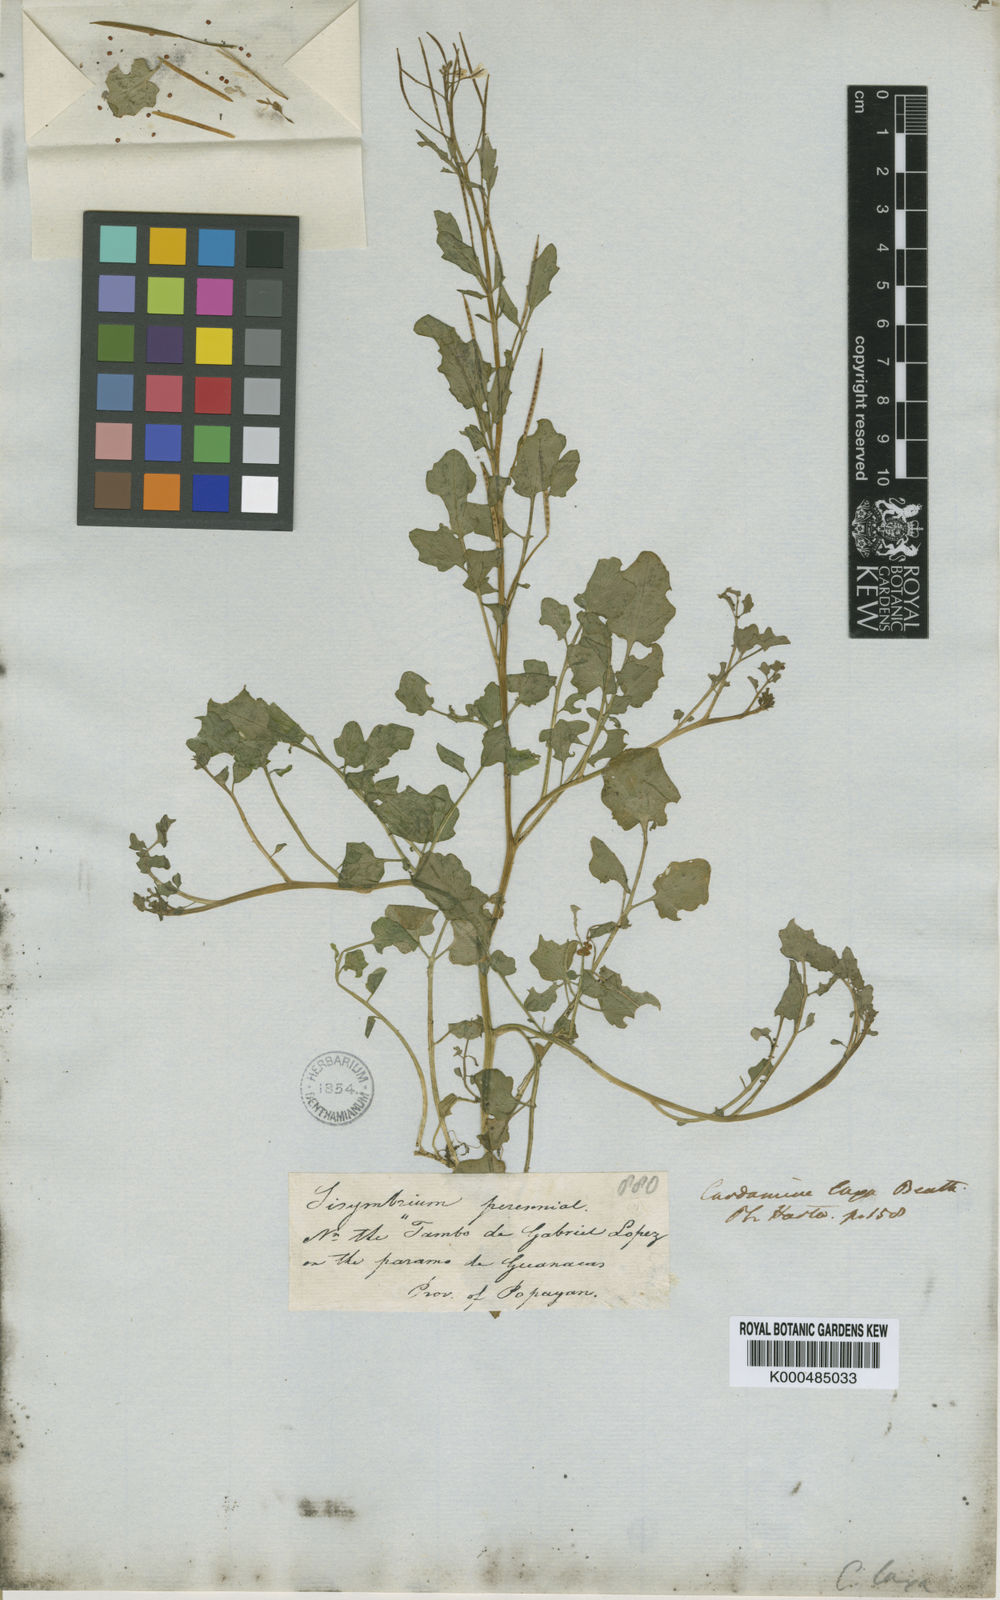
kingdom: Plantae
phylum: Tracheophyta
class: Magnoliopsida
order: Brassicales
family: Brassicaceae
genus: Cardamine
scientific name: Cardamine bonariensis
